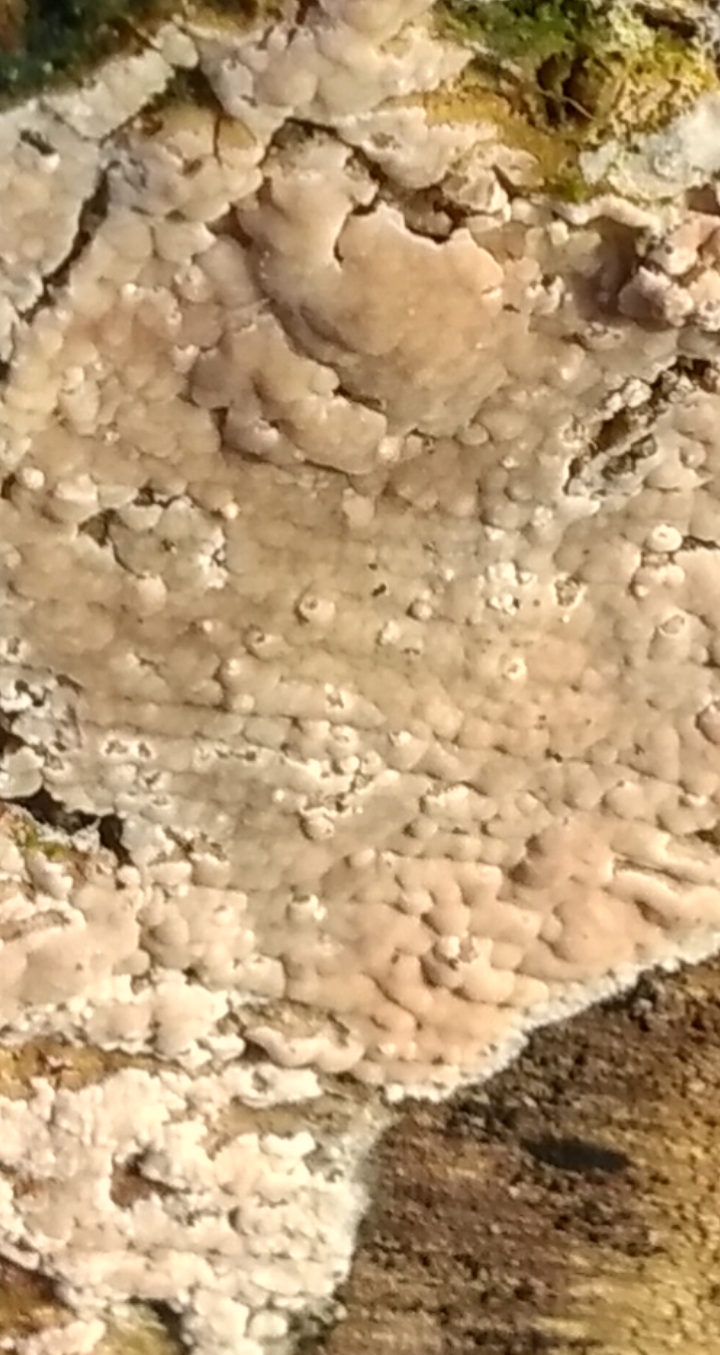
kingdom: Fungi
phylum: Basidiomycota
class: Agaricomycetes
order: Agaricales
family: Physalacriaceae
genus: Cylindrobasidium
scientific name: Cylindrobasidium evolvens
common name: sprækkehinde
